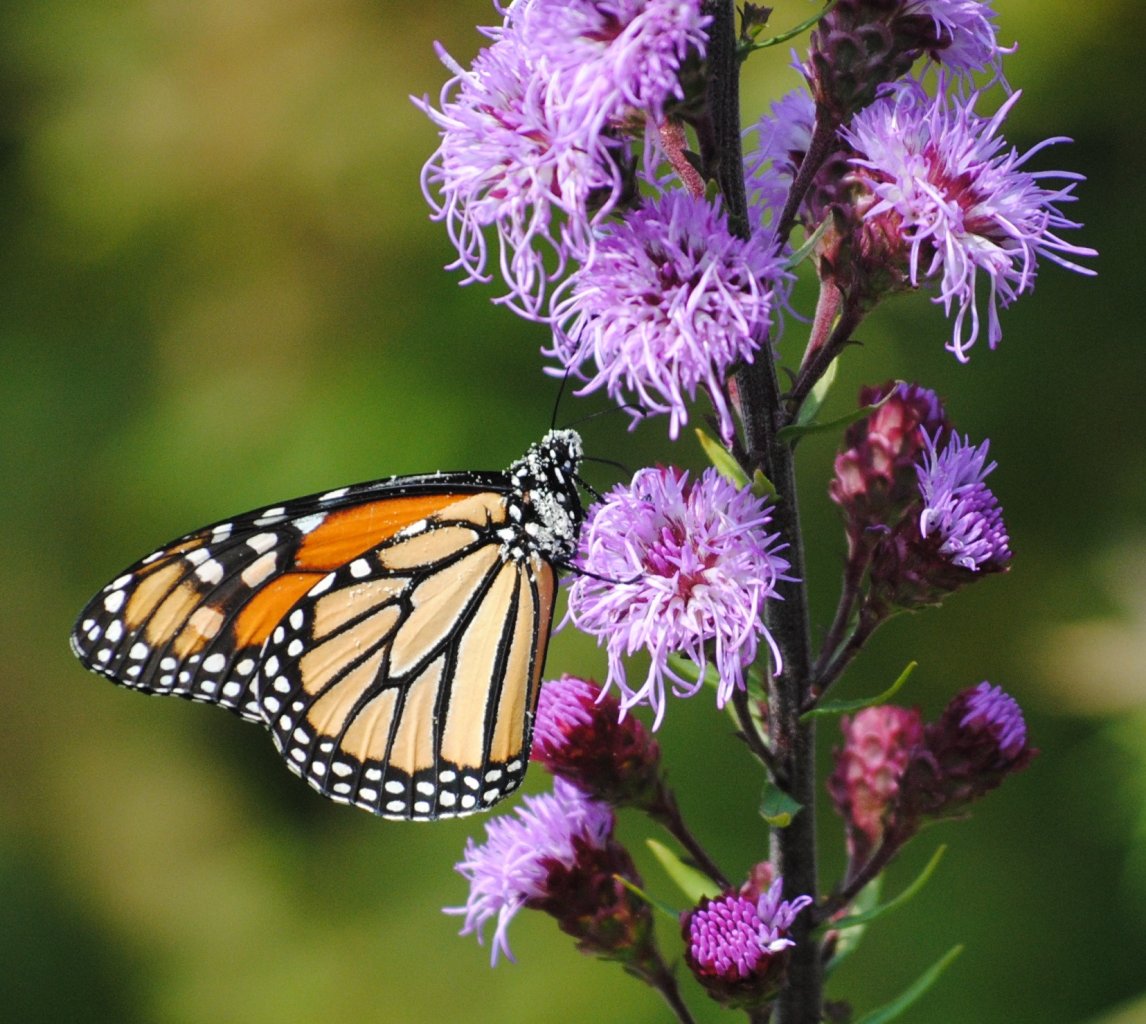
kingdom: Animalia
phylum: Arthropoda
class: Insecta
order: Lepidoptera
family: Nymphalidae
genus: Danaus
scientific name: Danaus plexippus
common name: Monarch
